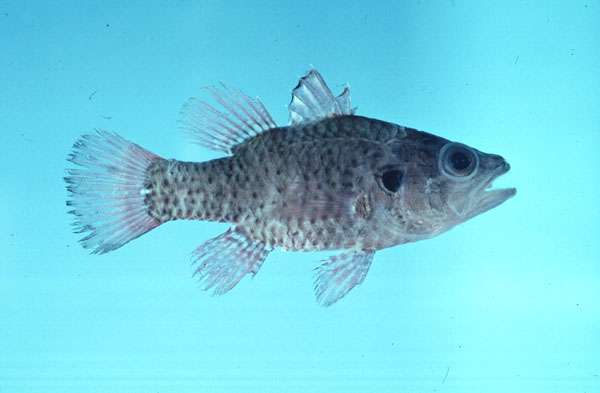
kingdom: Animalia
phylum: Chordata
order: Perciformes
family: Apogonidae
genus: Fowleria
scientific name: Fowleria variegata
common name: Variegated cardinalfish
